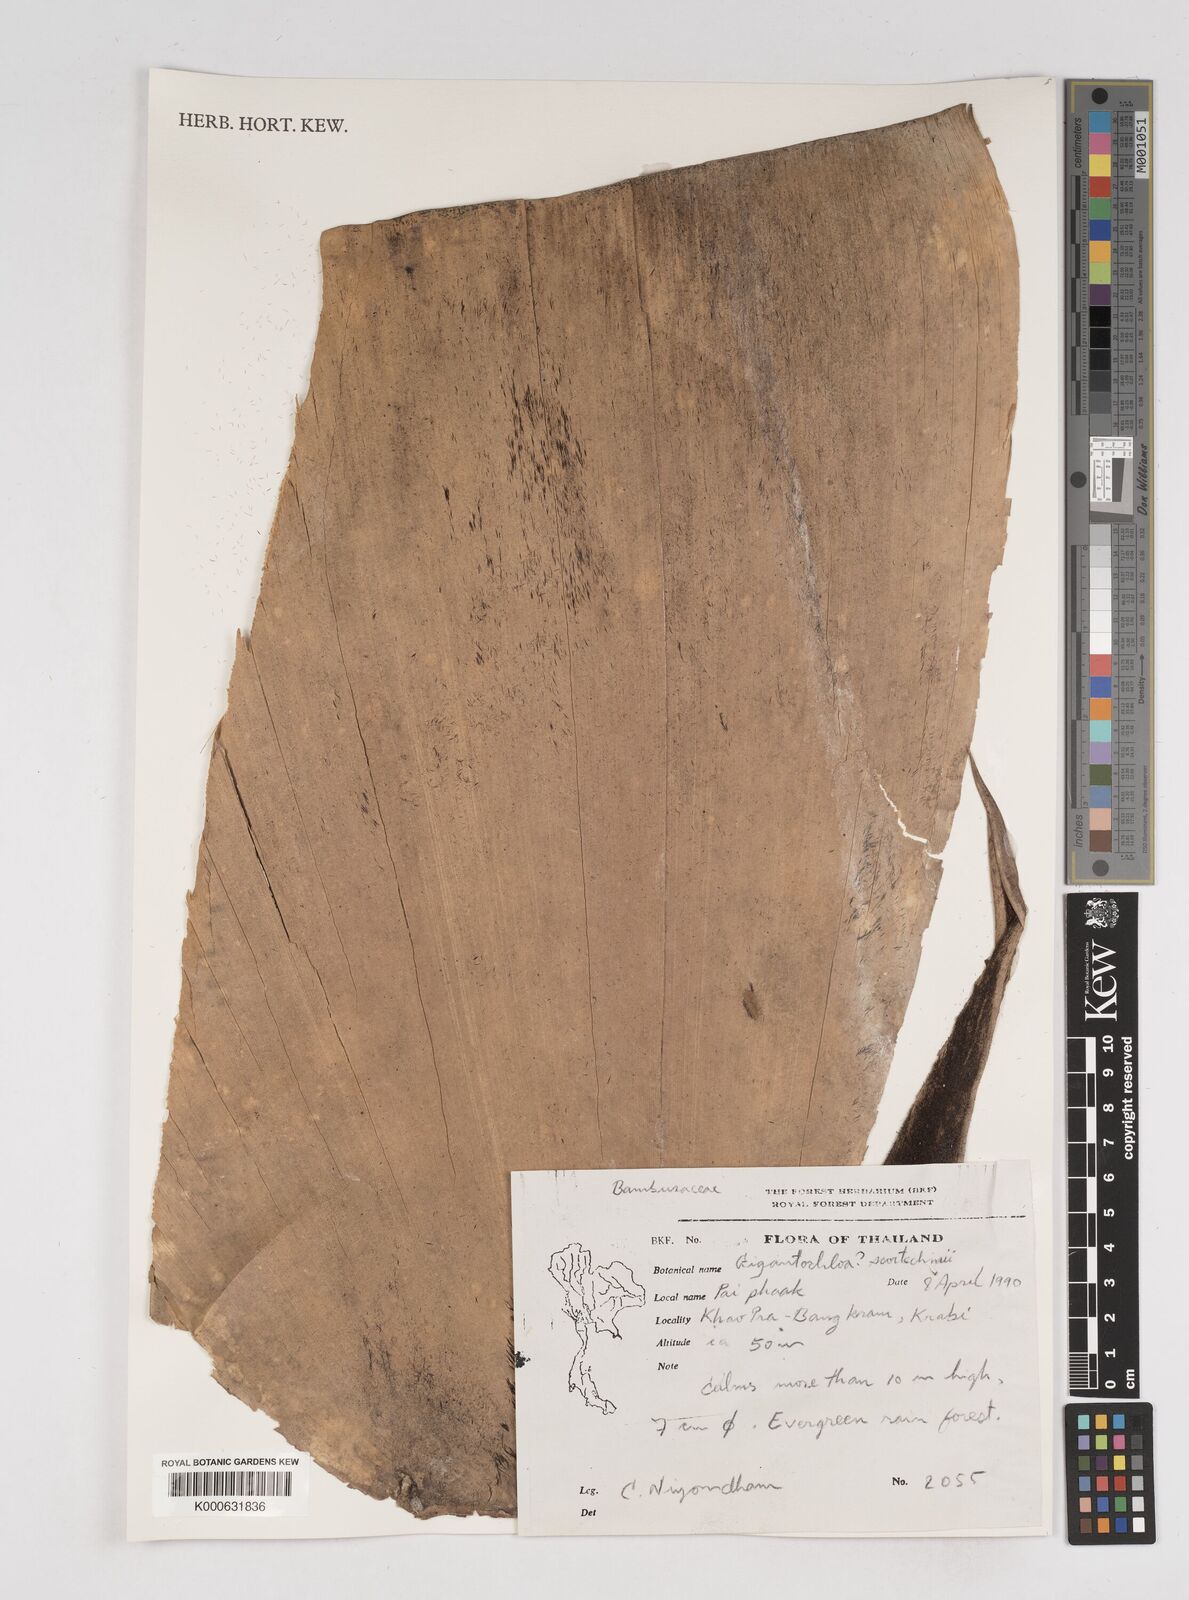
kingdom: Plantae
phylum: Tracheophyta
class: Liliopsida
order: Poales
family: Poaceae
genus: Gigantochloa
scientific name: Gigantochloa
